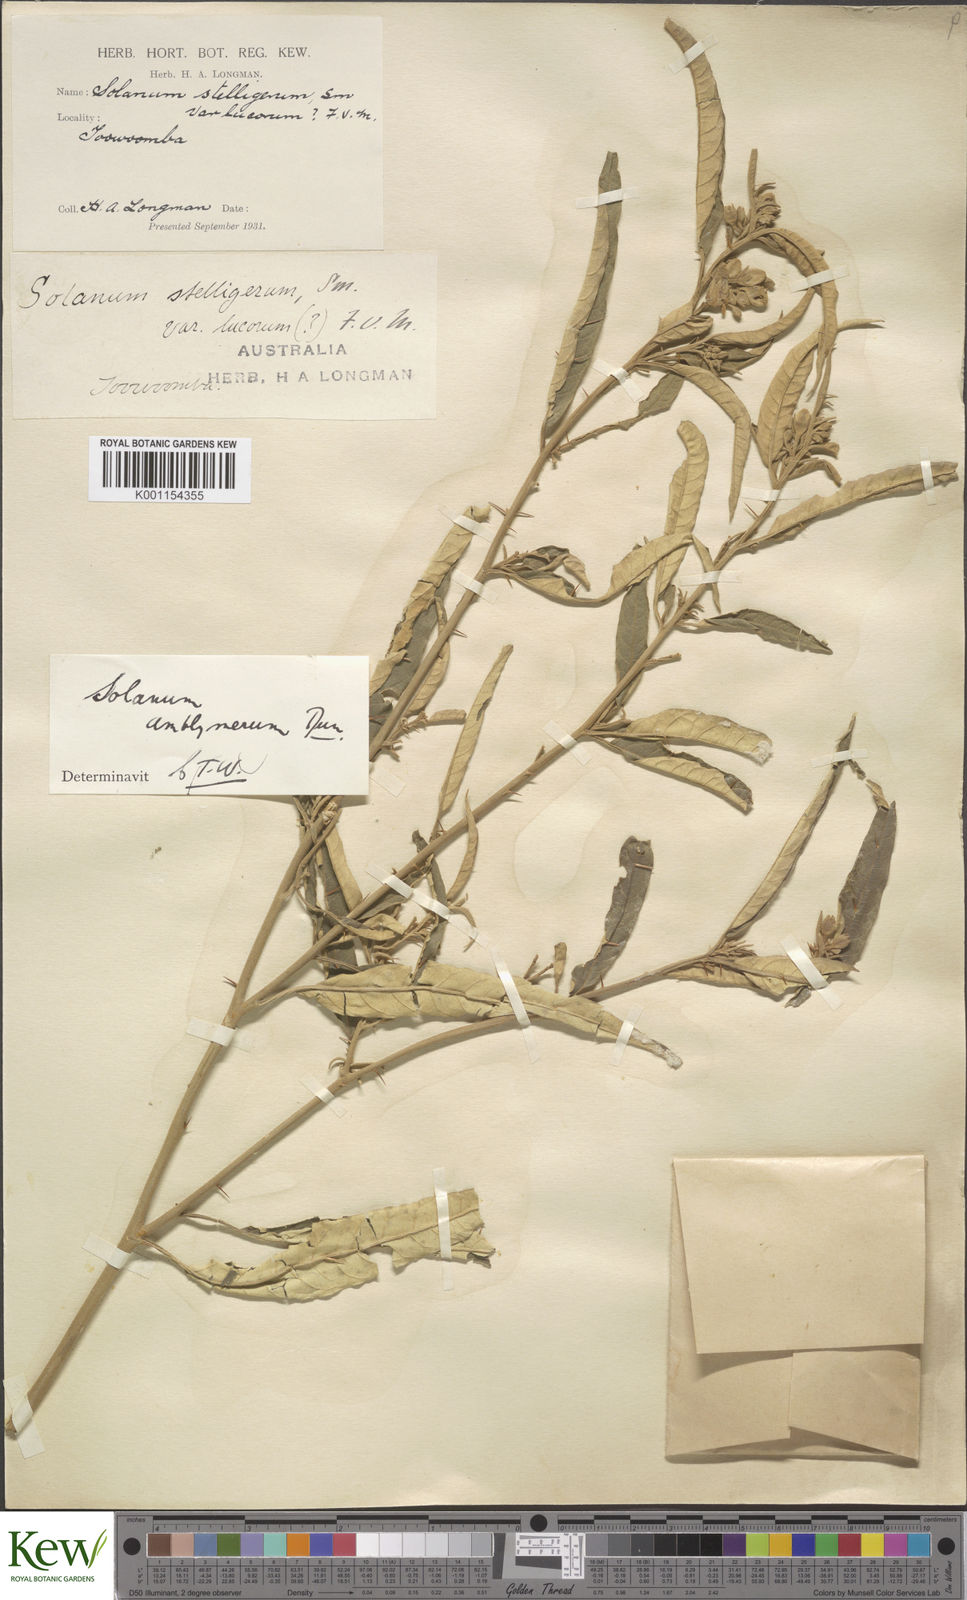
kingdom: Plantae
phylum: Tracheophyta
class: Magnoliopsida
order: Solanales
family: Solanaceae
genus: Solanum
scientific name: Solanum elegans
